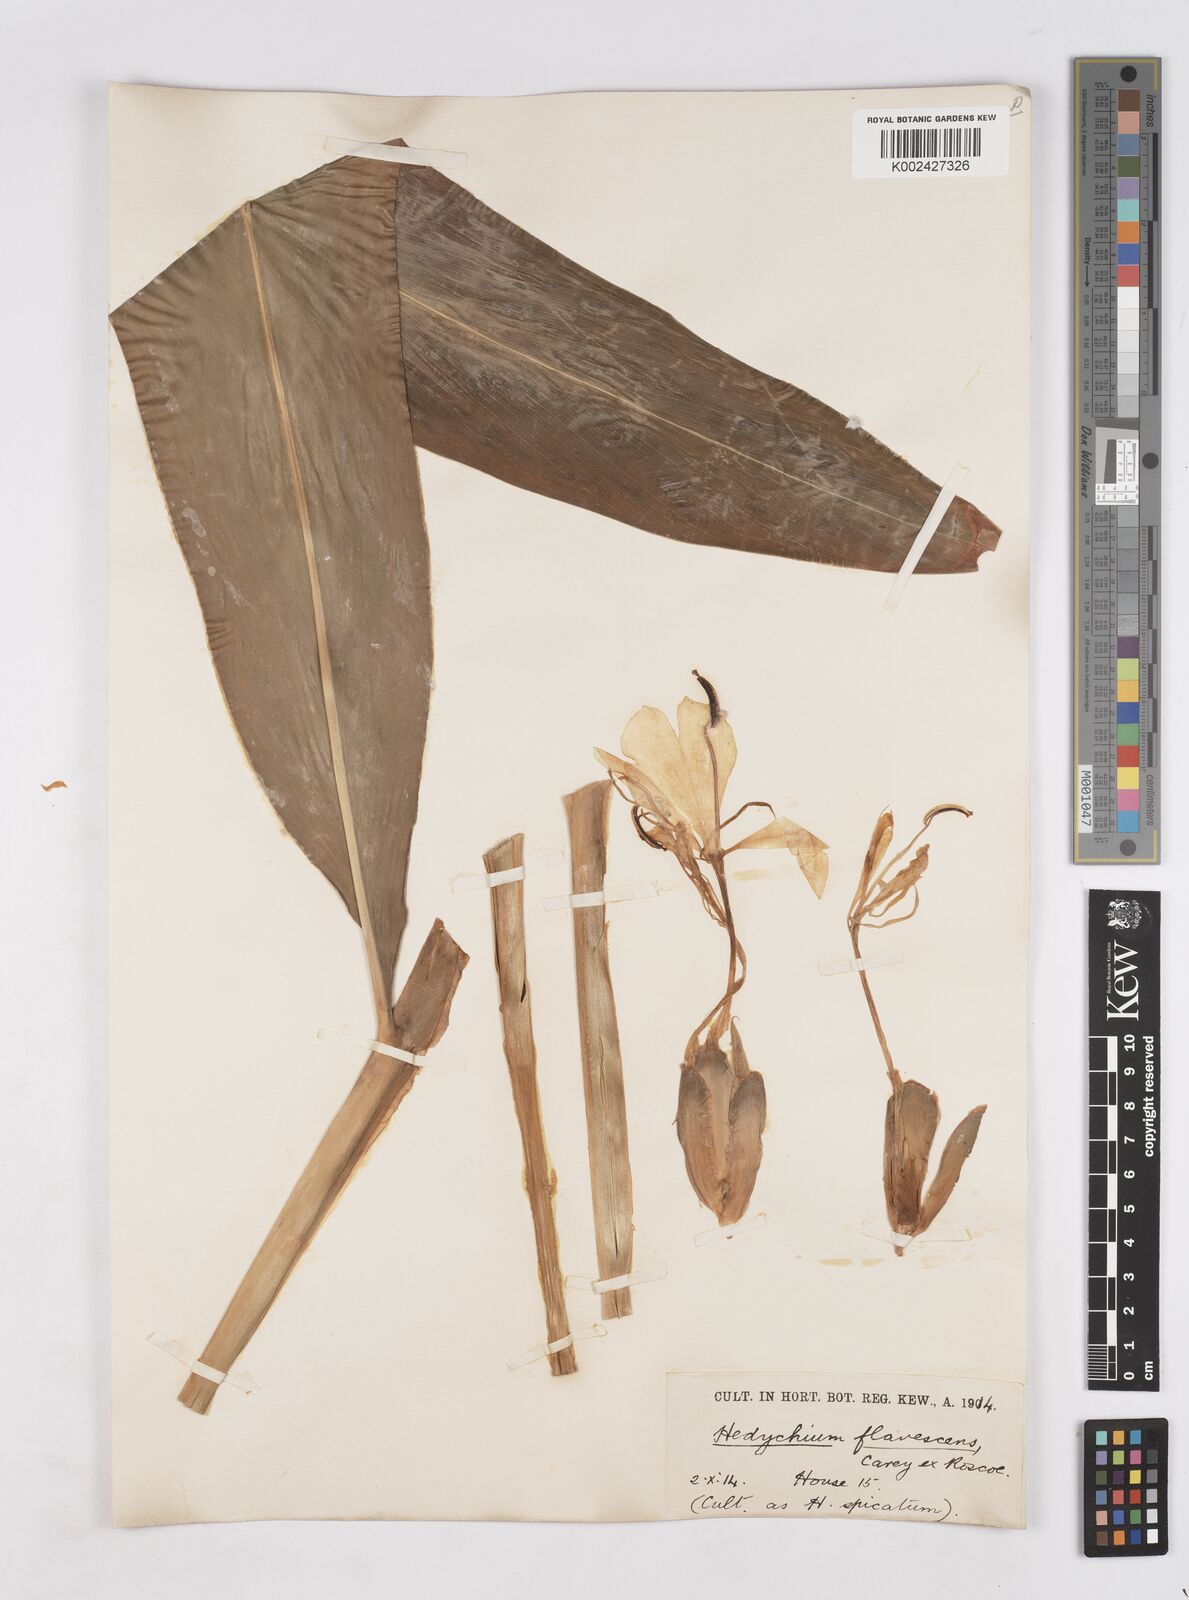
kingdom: Plantae
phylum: Tracheophyta
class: Liliopsida
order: Zingiberales
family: Zingiberaceae
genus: Hedychium
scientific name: Hedychium flavescens
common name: Yellow ginger
